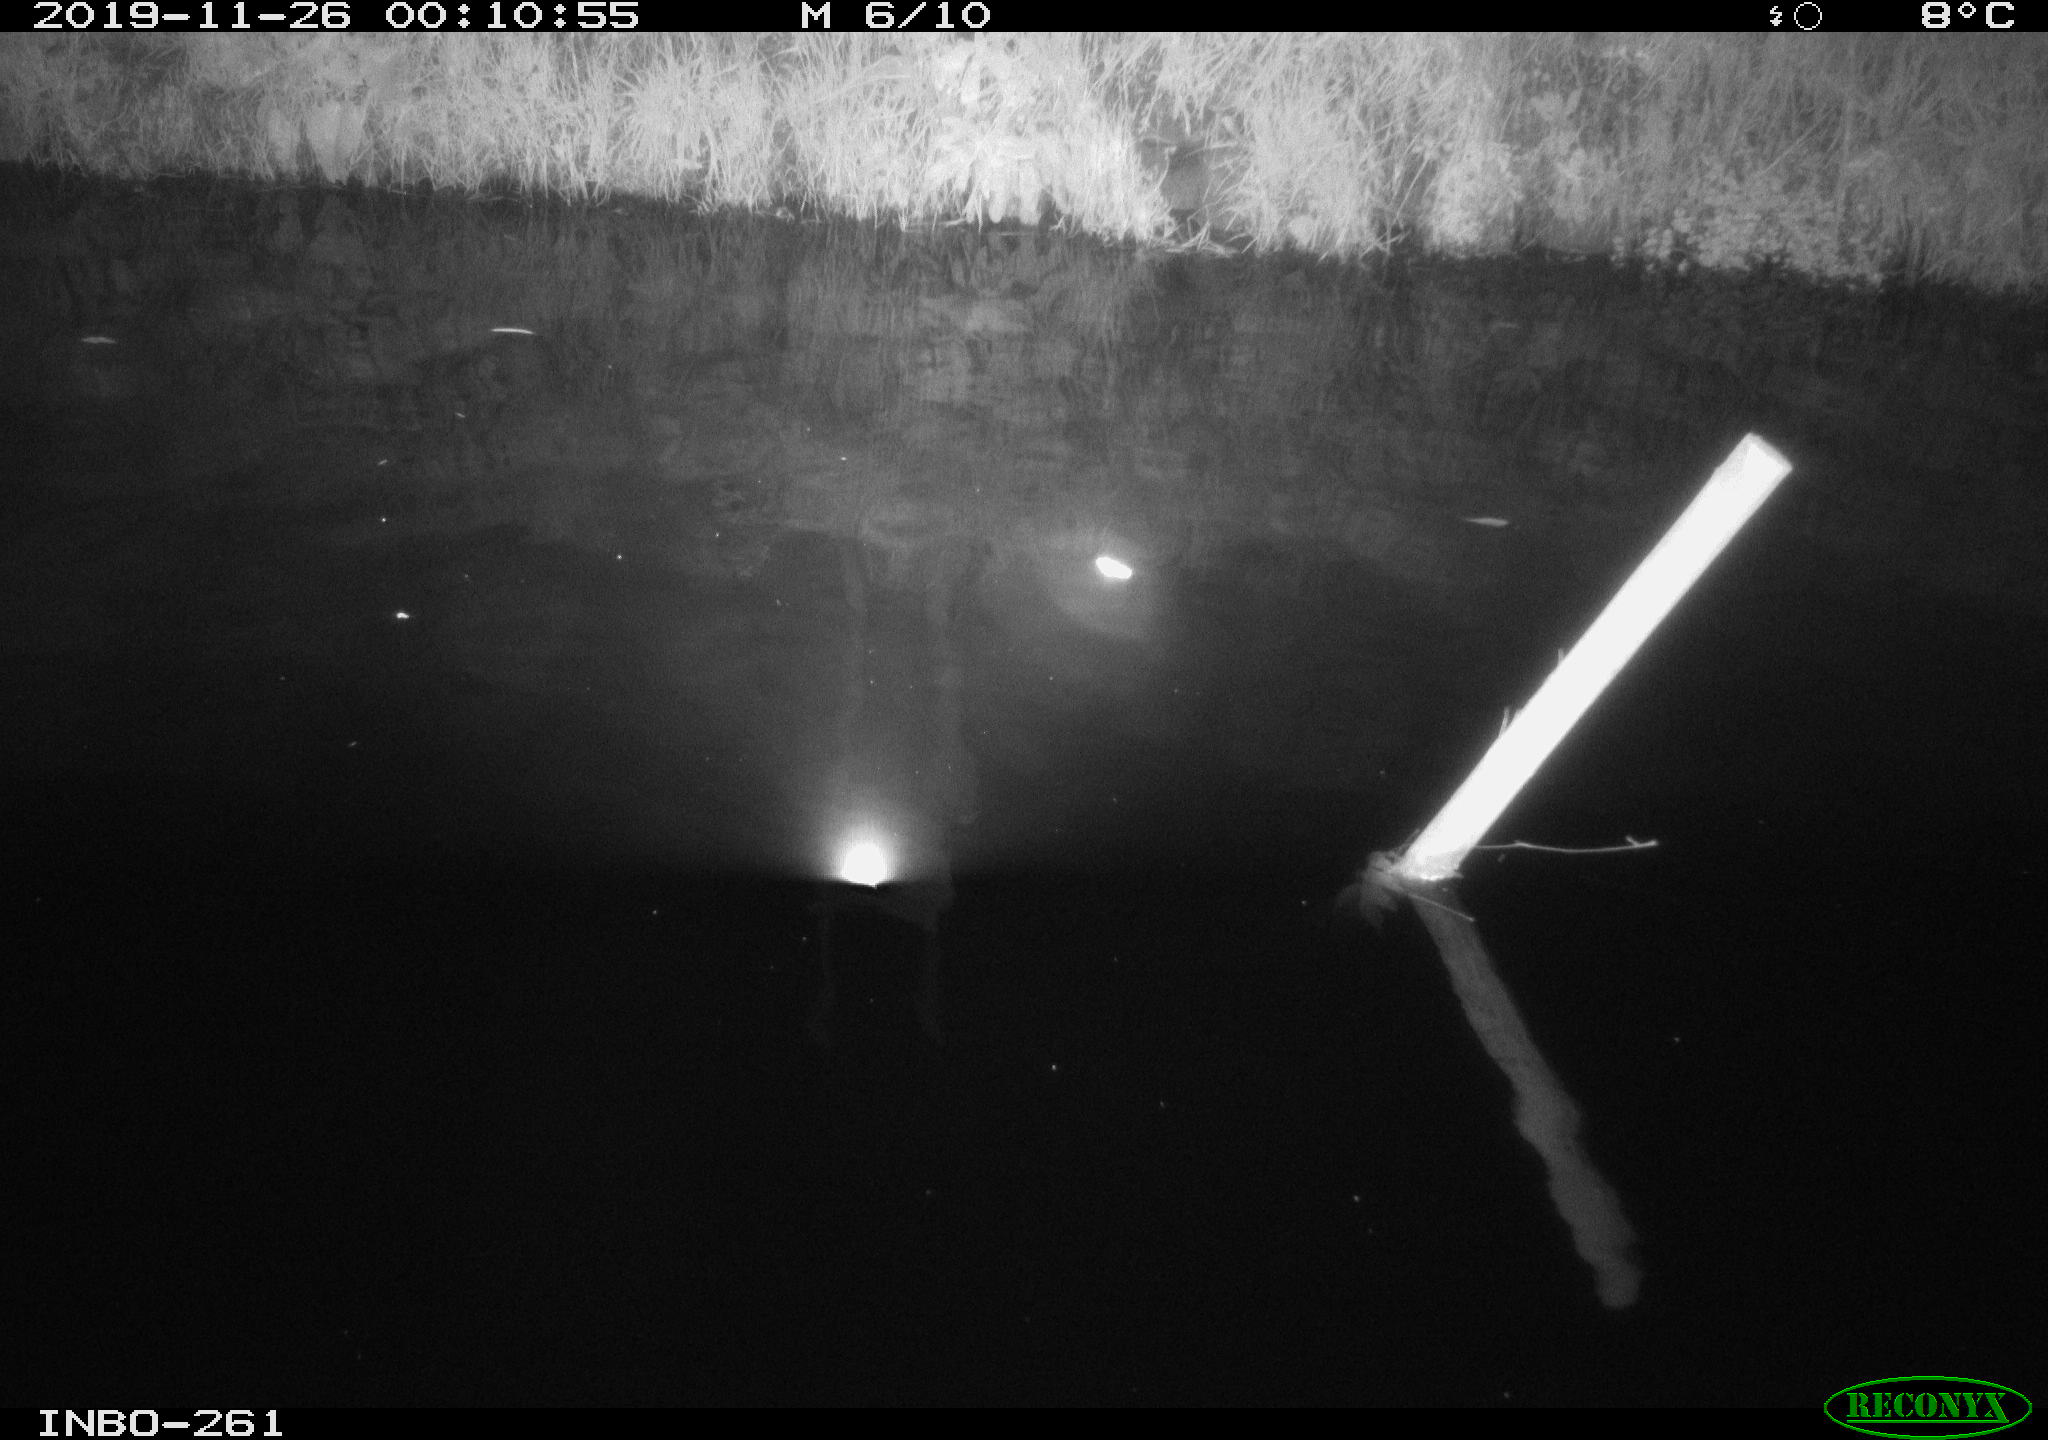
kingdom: Animalia
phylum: Chordata
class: Aves
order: Anseriformes
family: Anatidae
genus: Anas
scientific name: Anas platyrhynchos
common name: Mallard
